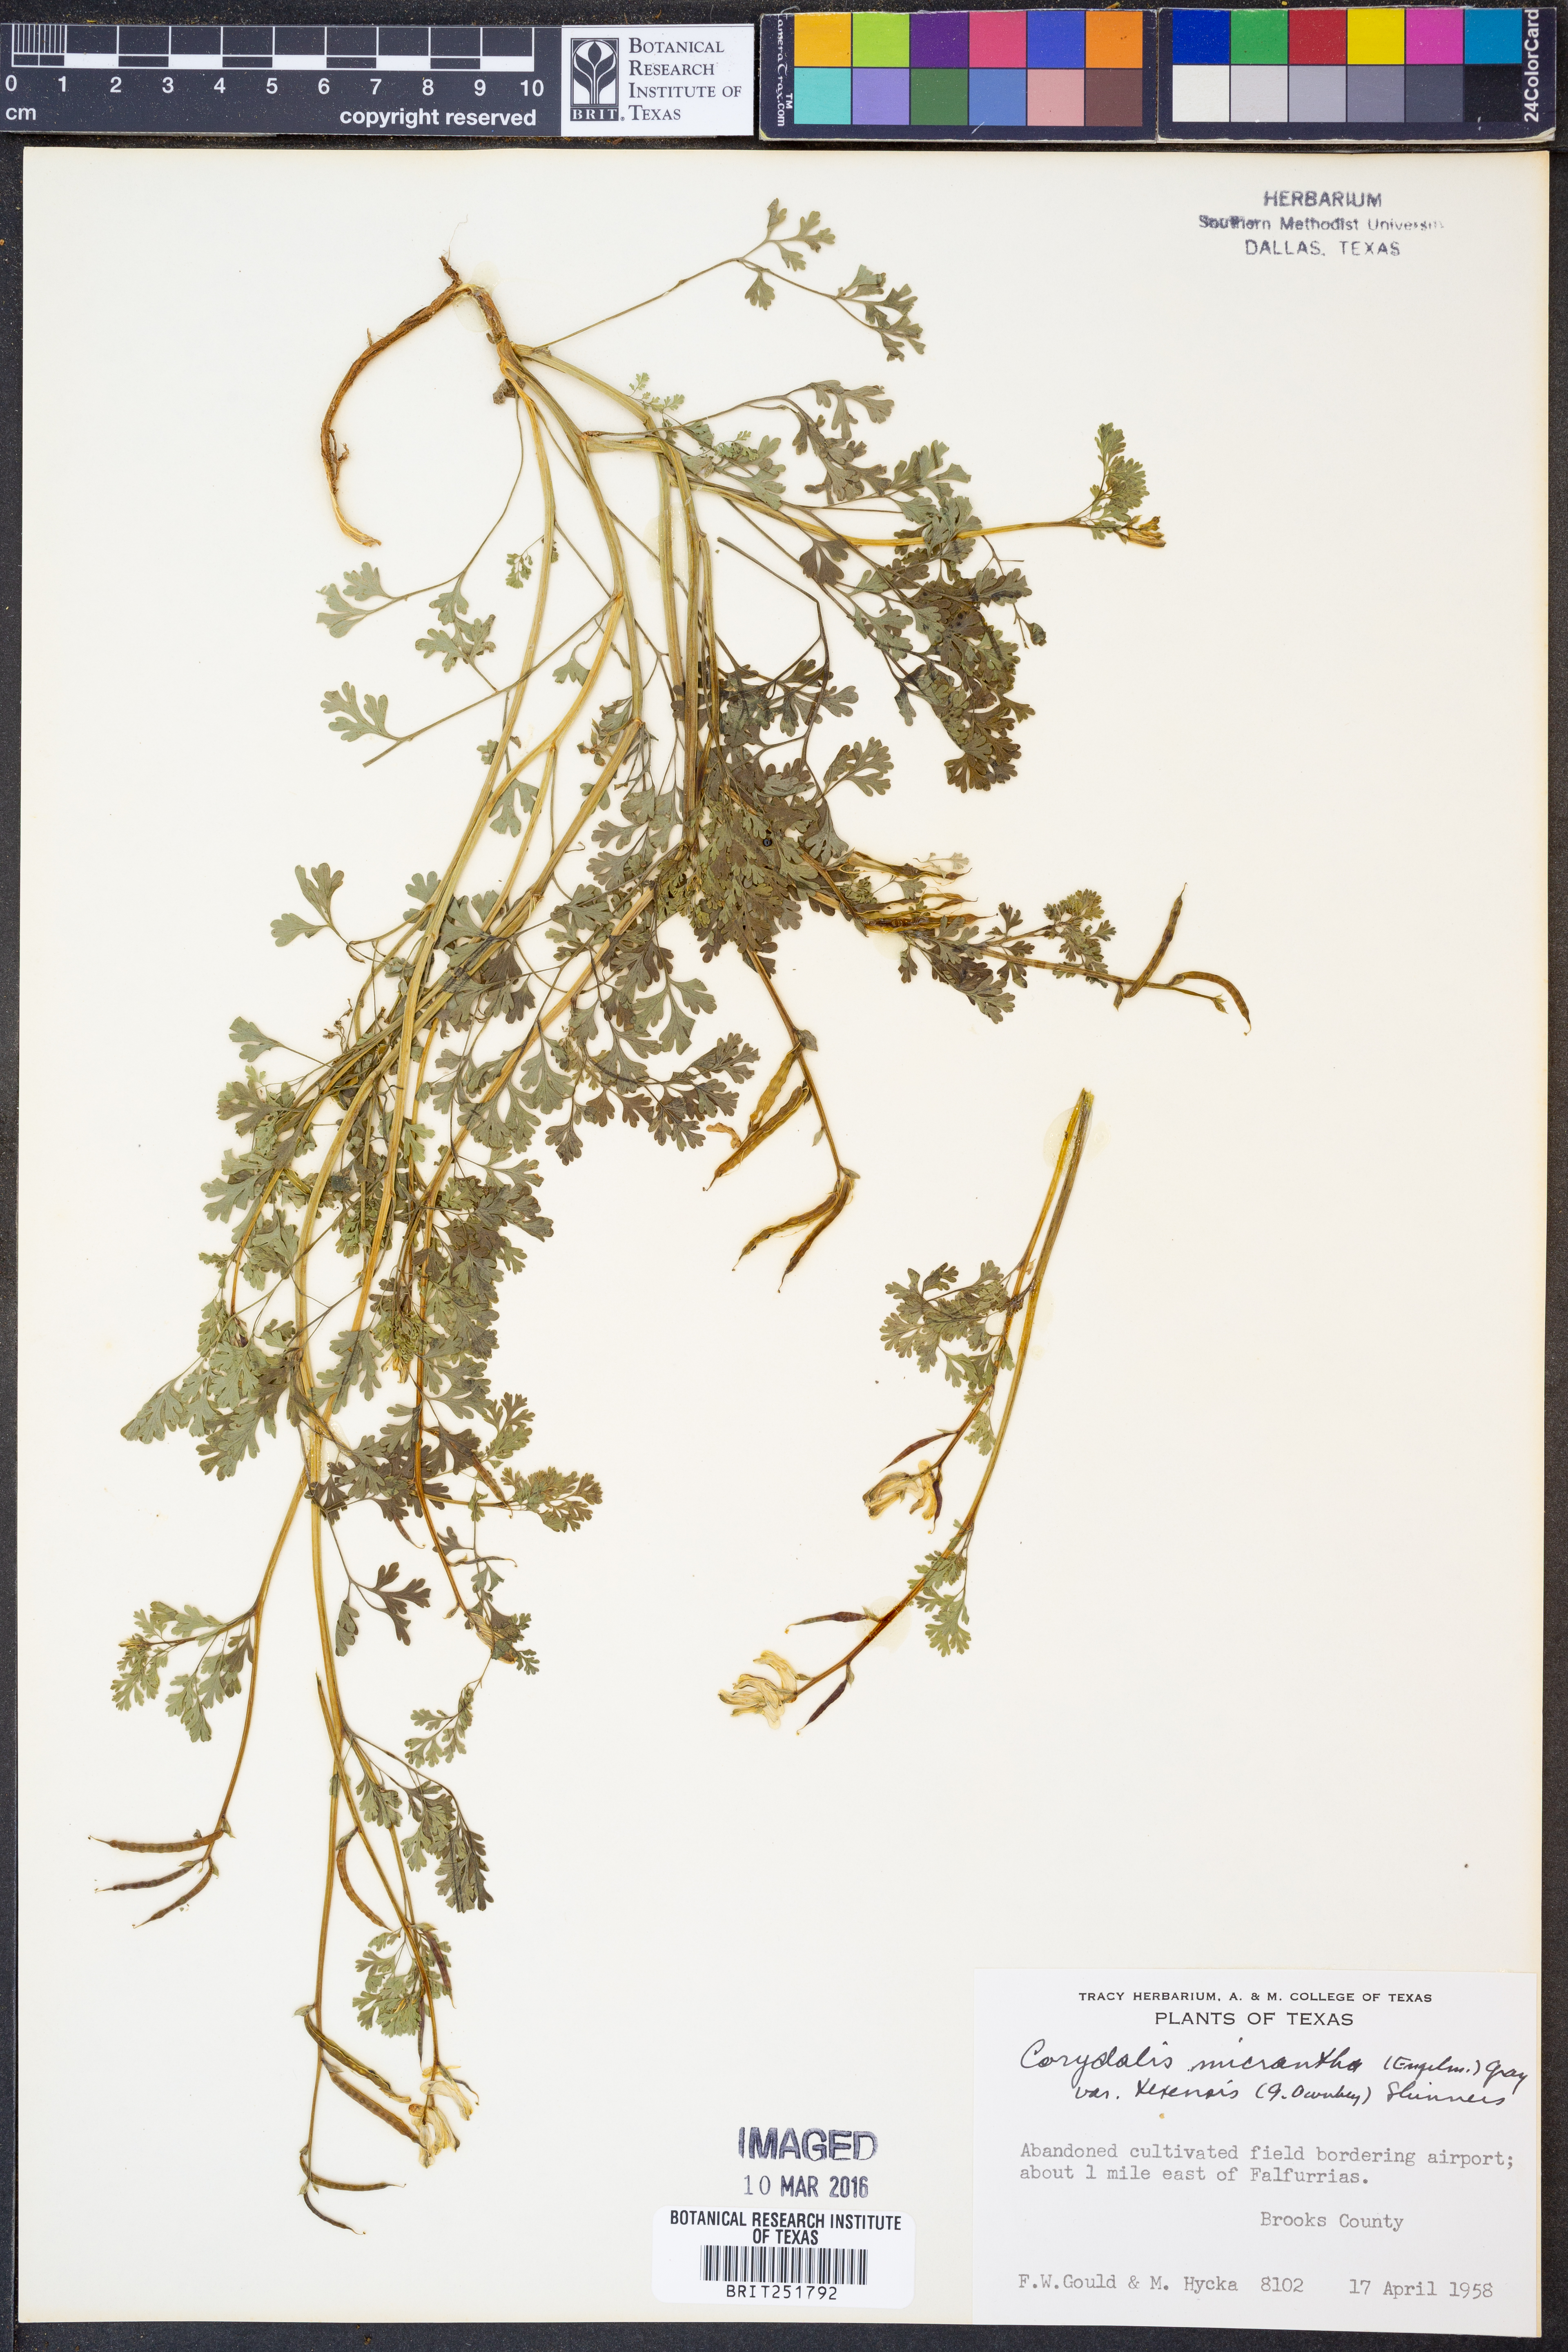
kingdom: Plantae
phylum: Tracheophyta
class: Magnoliopsida
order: Ranunculales
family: Papaveraceae
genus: Corydalis
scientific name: Corydalis micrantha
